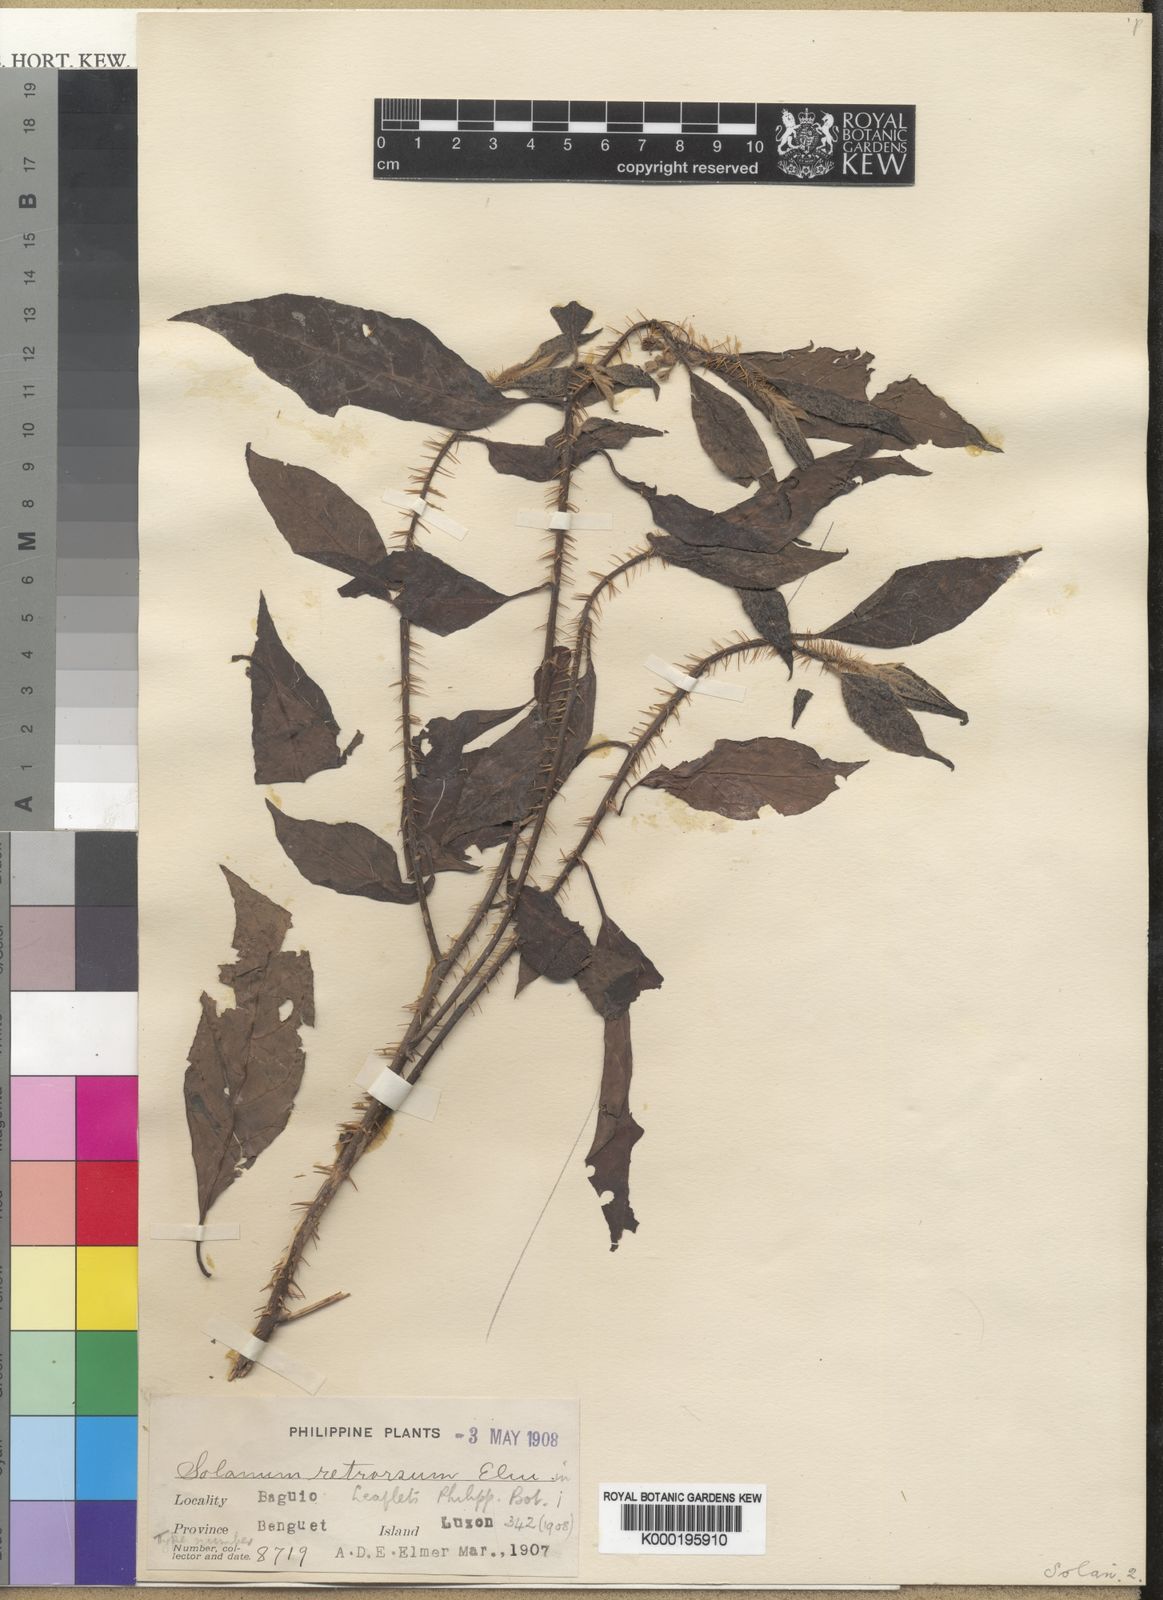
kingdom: Plantae
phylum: Tracheophyta
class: Magnoliopsida
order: Solanales
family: Solanaceae
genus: Solanum
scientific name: Solanum retrorsum
